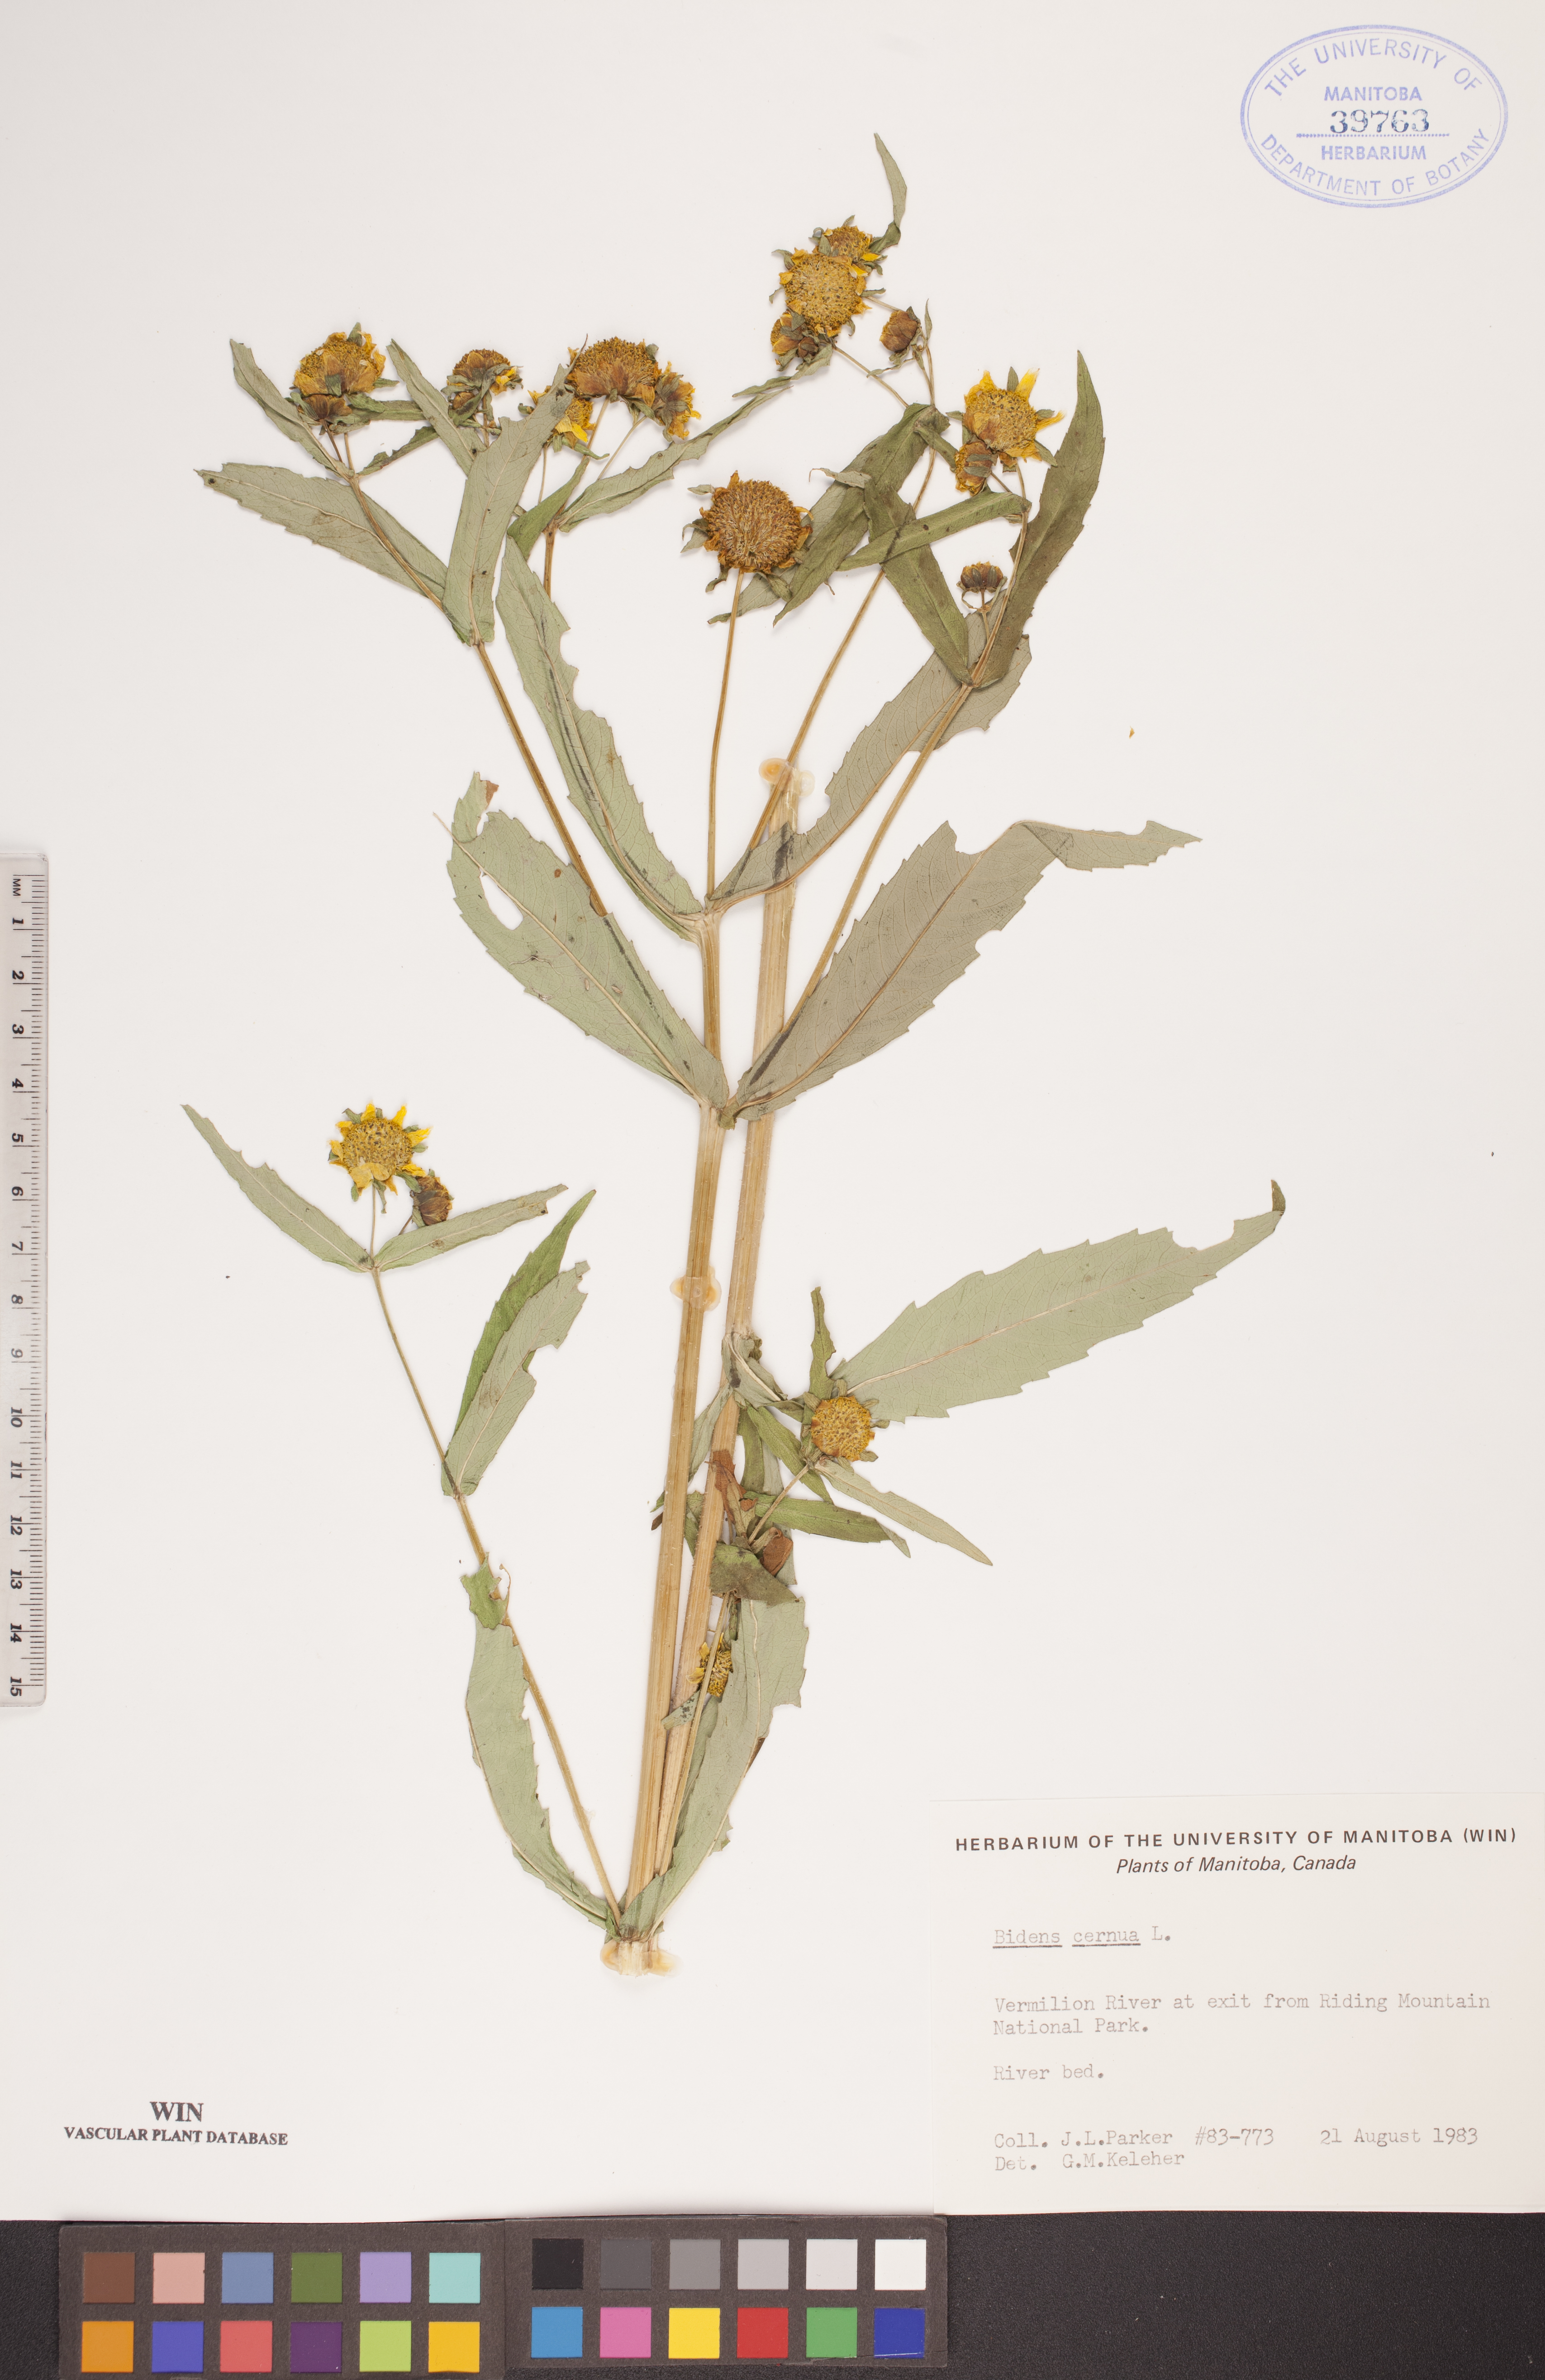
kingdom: Plantae
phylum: Tracheophyta
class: Magnoliopsida
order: Asterales
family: Asteraceae
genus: Bidens
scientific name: Bidens cernua
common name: Nodding bur-marigold
